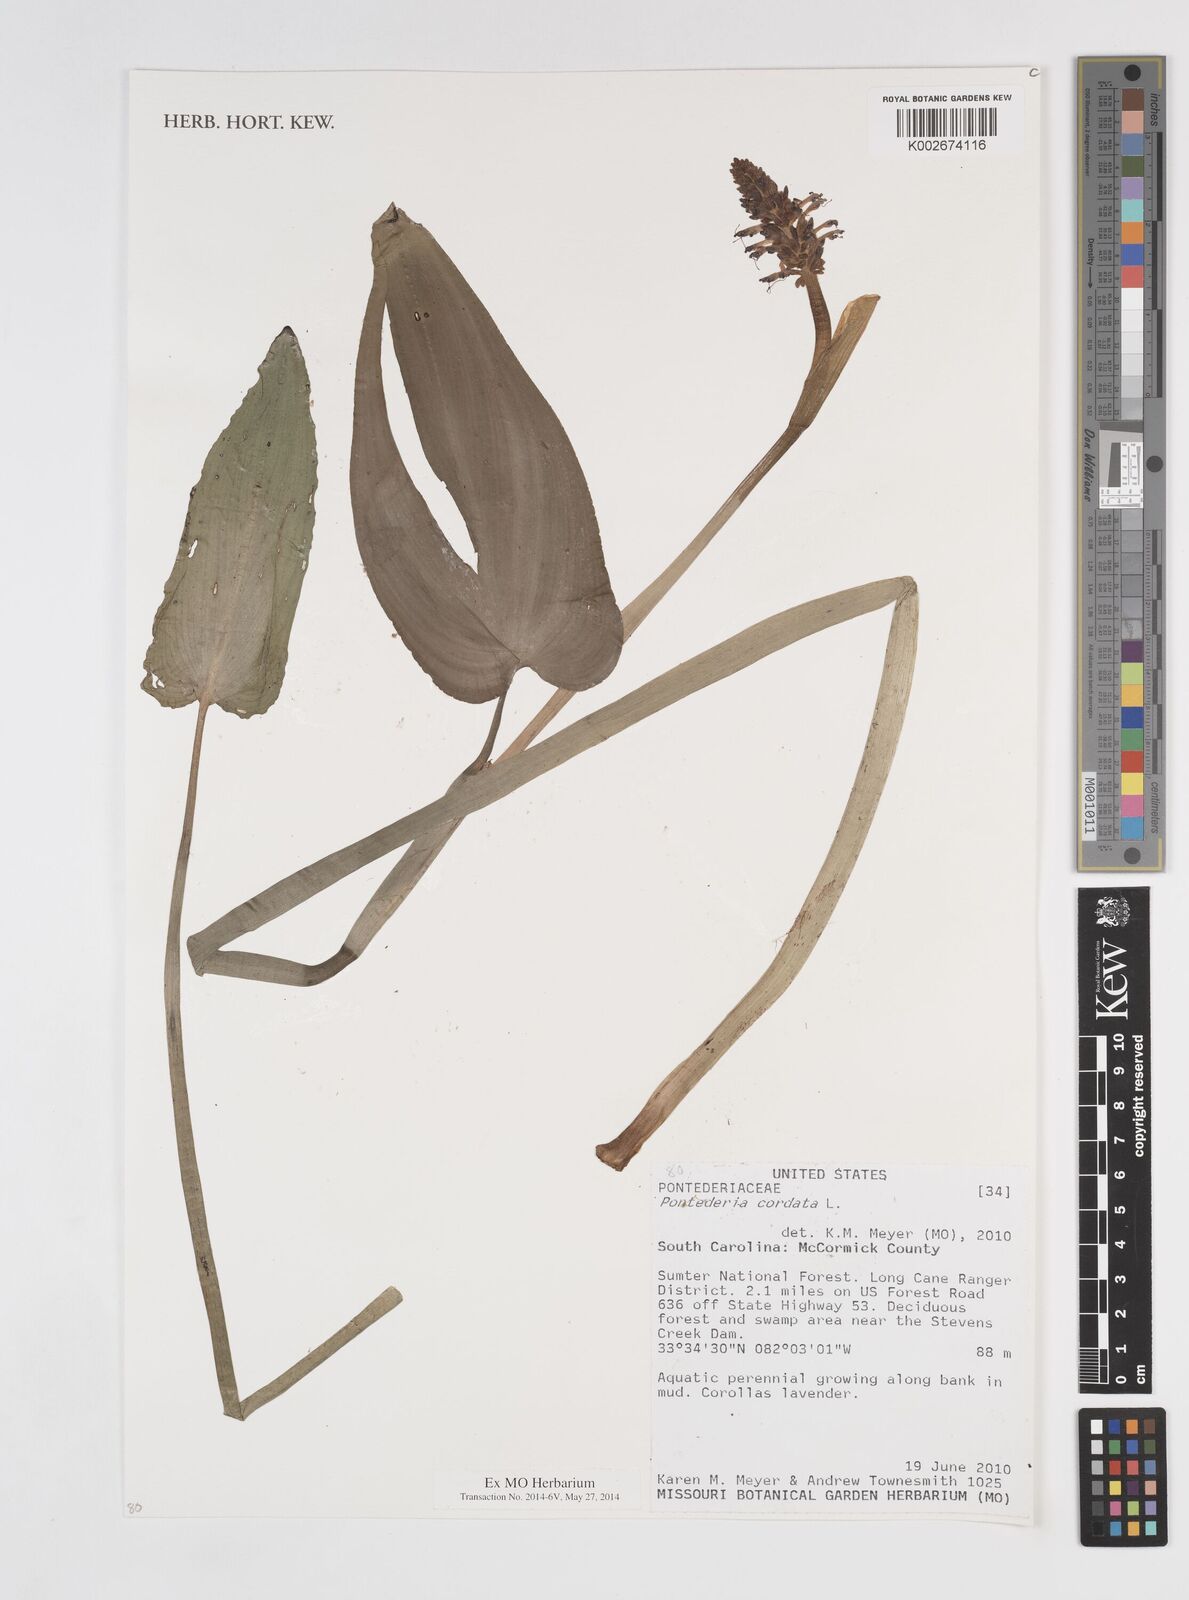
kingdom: Plantae
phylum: Tracheophyta
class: Liliopsida
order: Commelinales
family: Pontederiaceae
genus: Pontederia
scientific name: Pontederia cordata
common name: Pickerelweed
